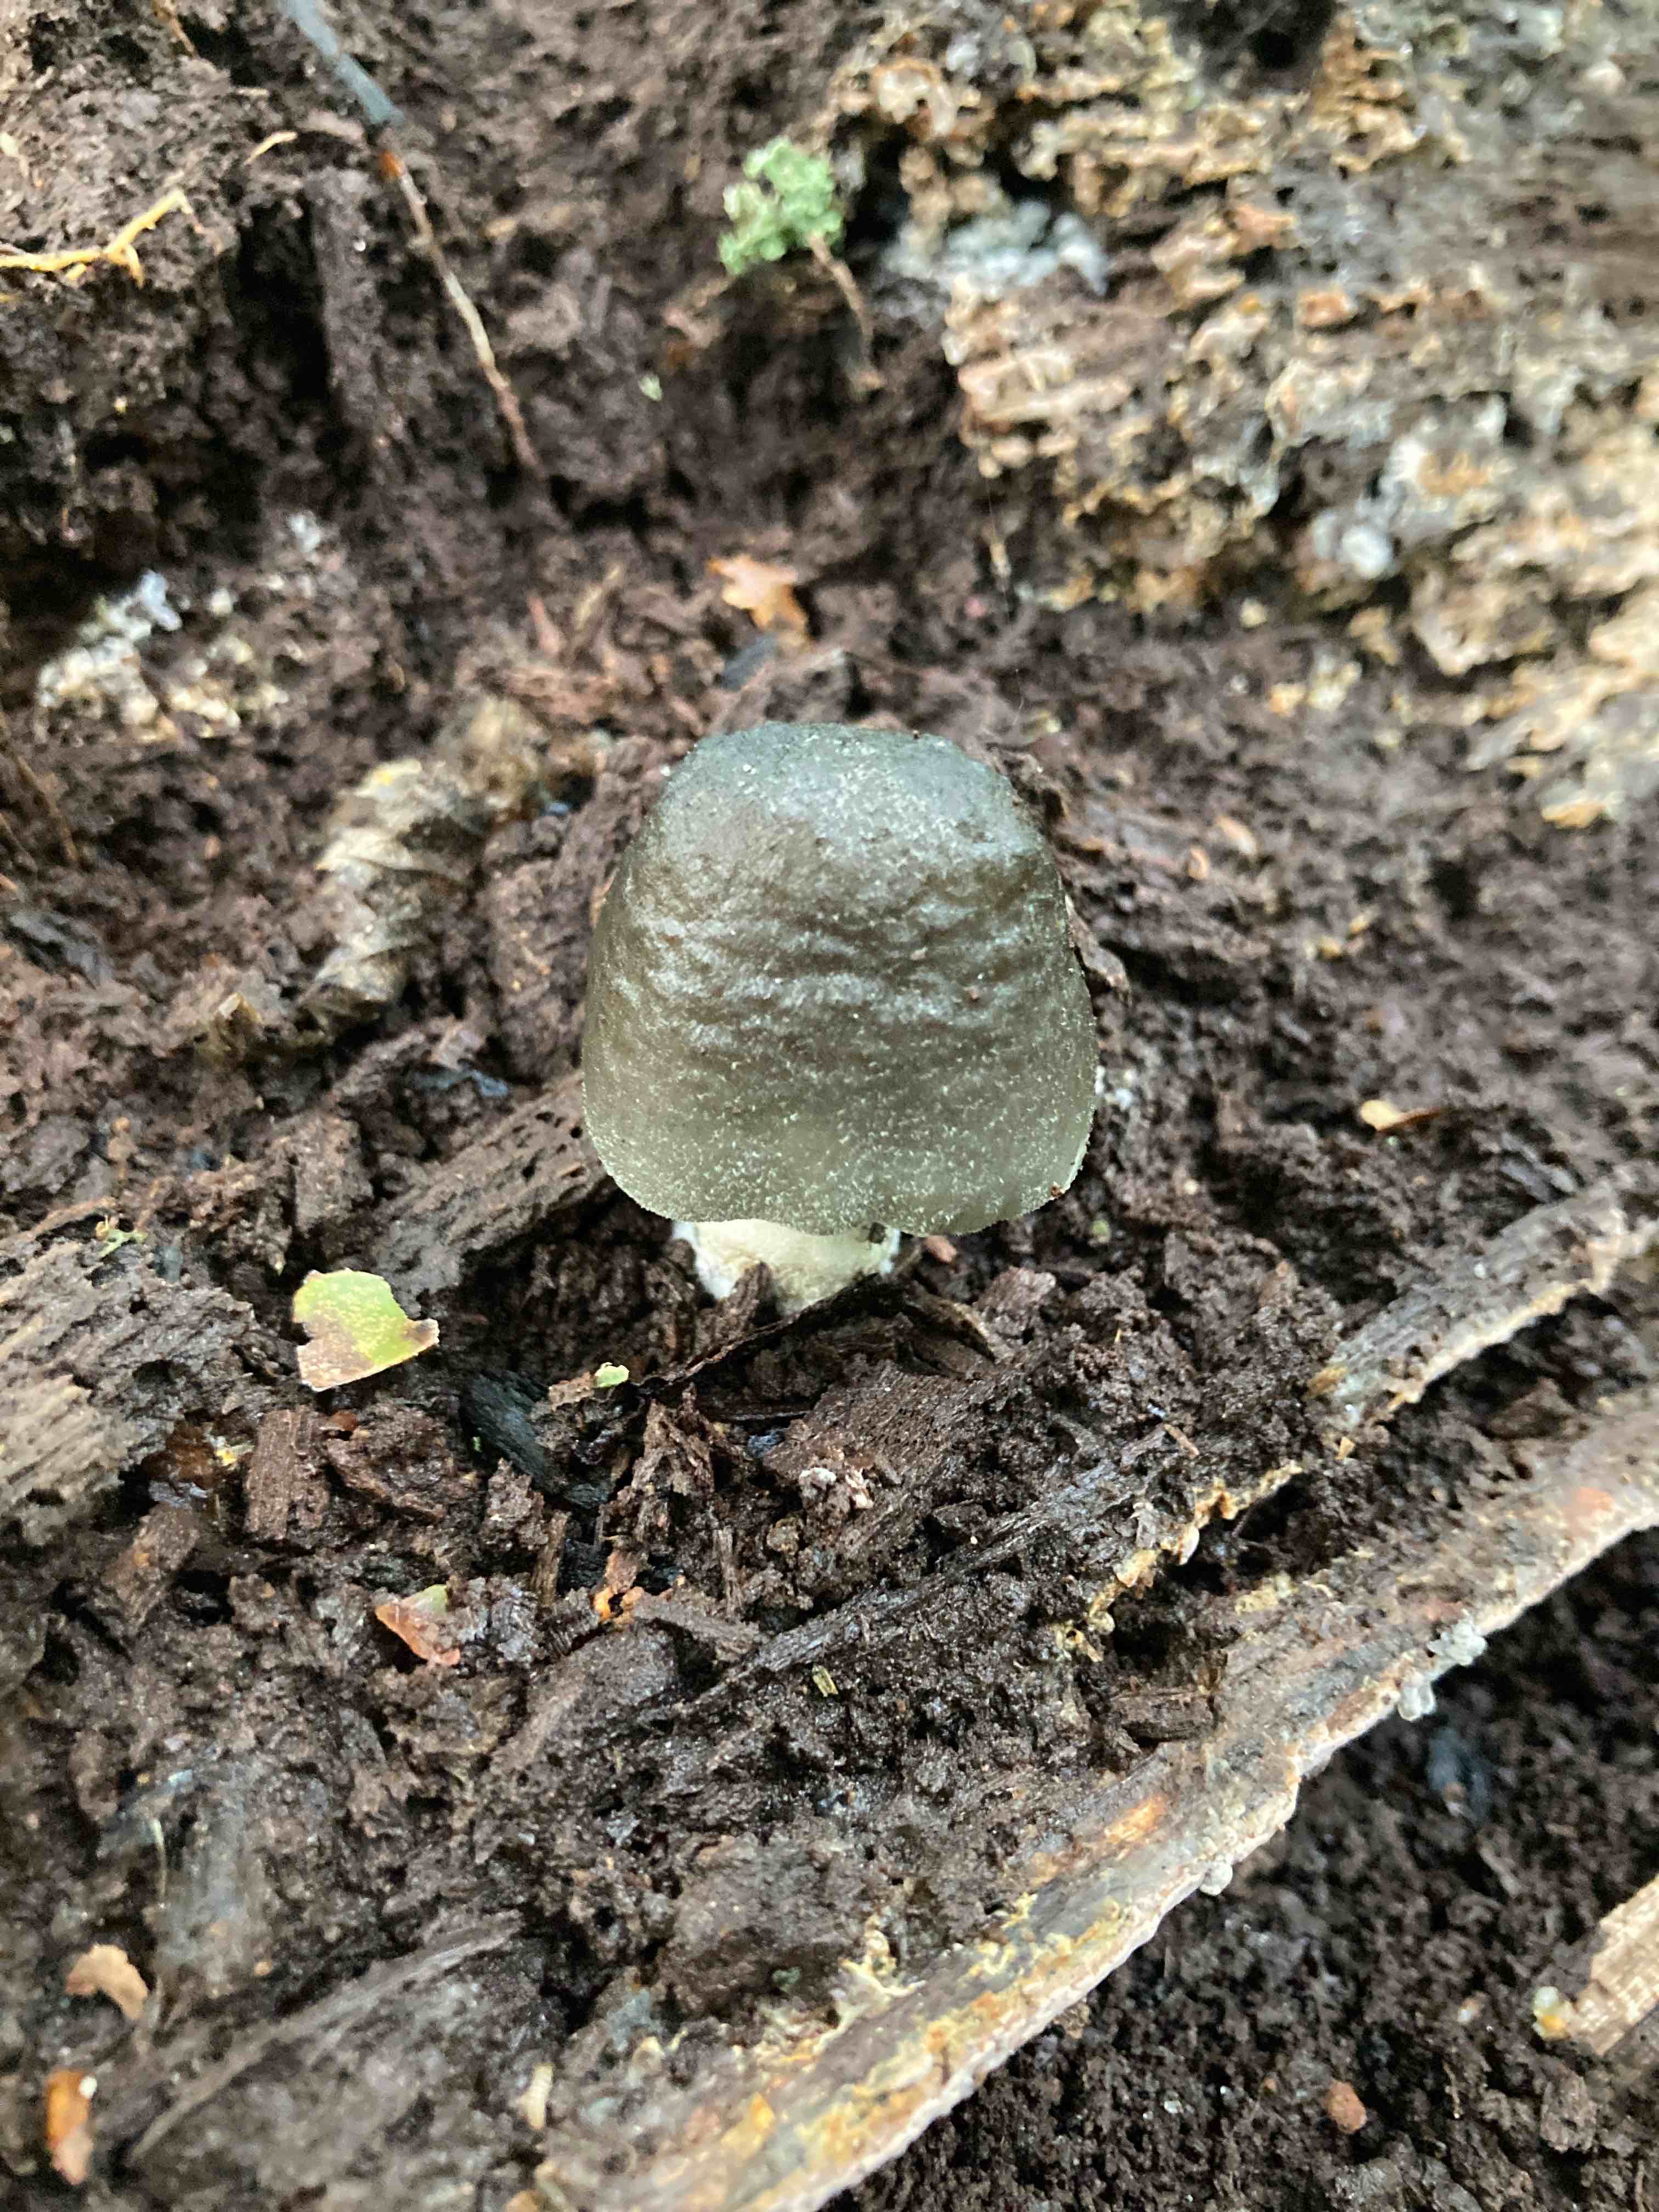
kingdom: Fungi
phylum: Basidiomycota
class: Agaricomycetes
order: Agaricales
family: Pluteaceae
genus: Pluteus
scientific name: Pluteus salicinus
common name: stiv skærmhat
